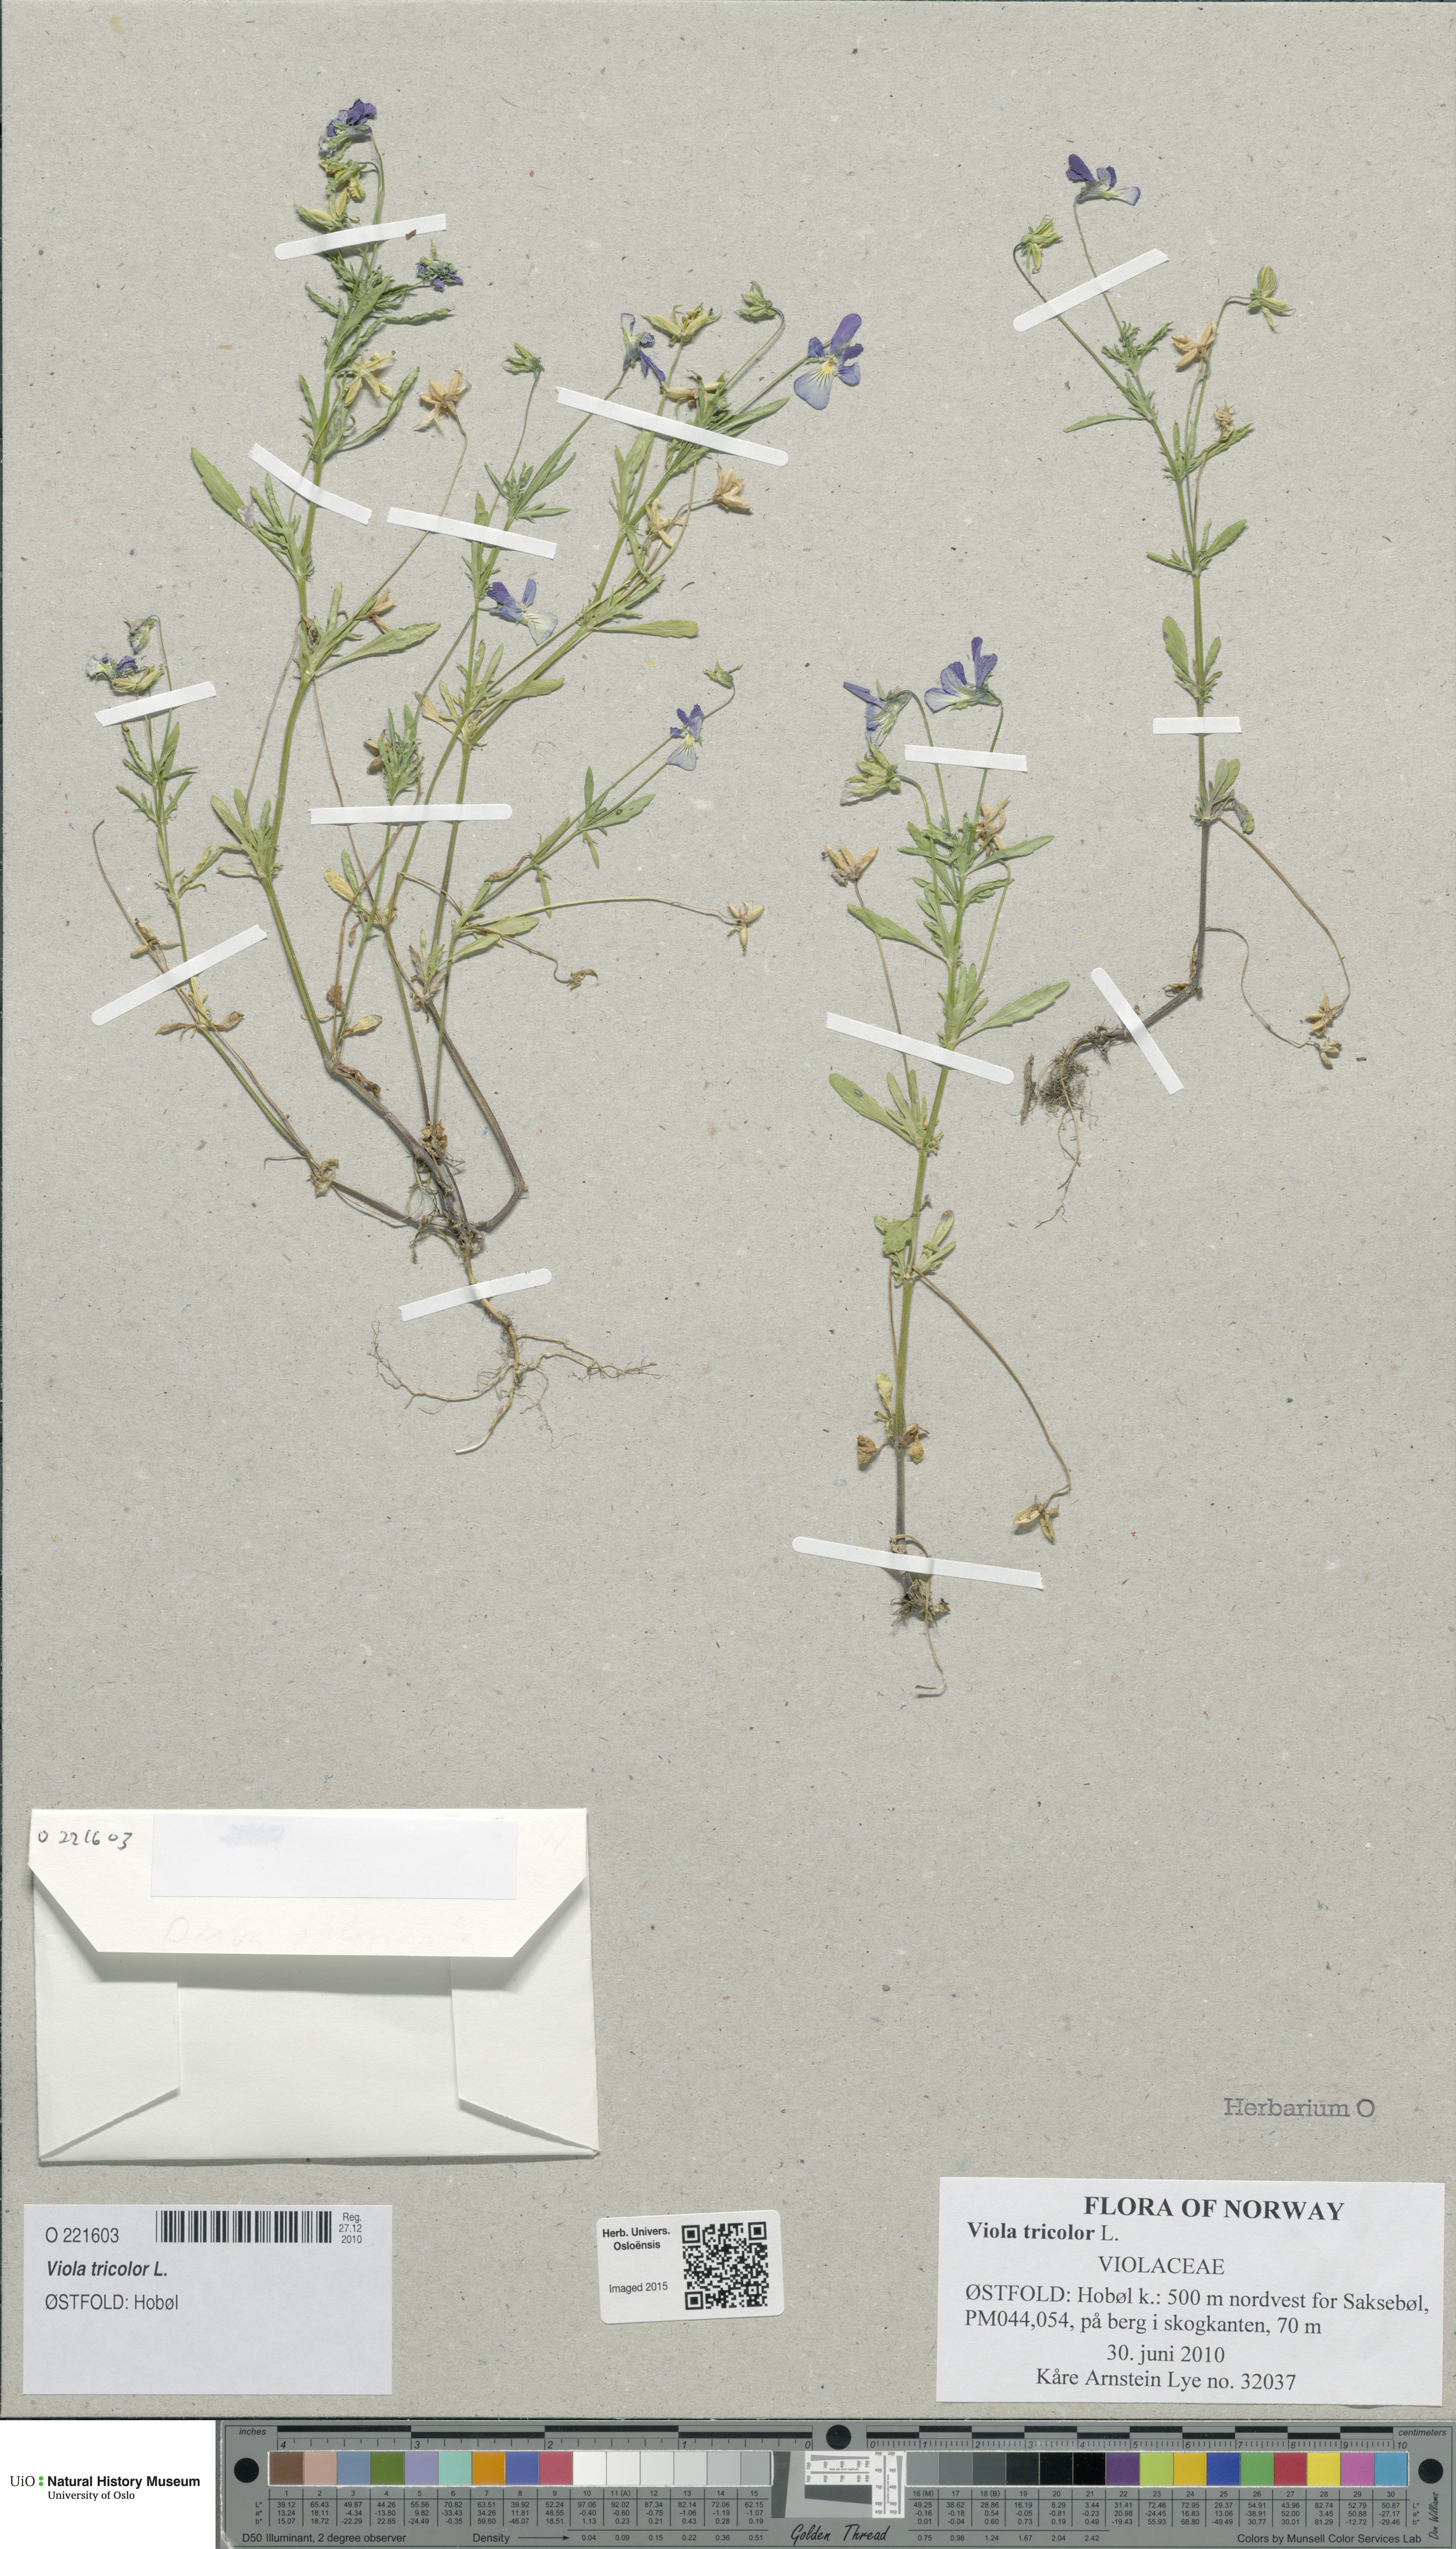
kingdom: Plantae
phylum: Tracheophyta
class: Magnoliopsida
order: Malpighiales
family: Violaceae
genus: Viola
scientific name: Viola tricolor
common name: Pansy
